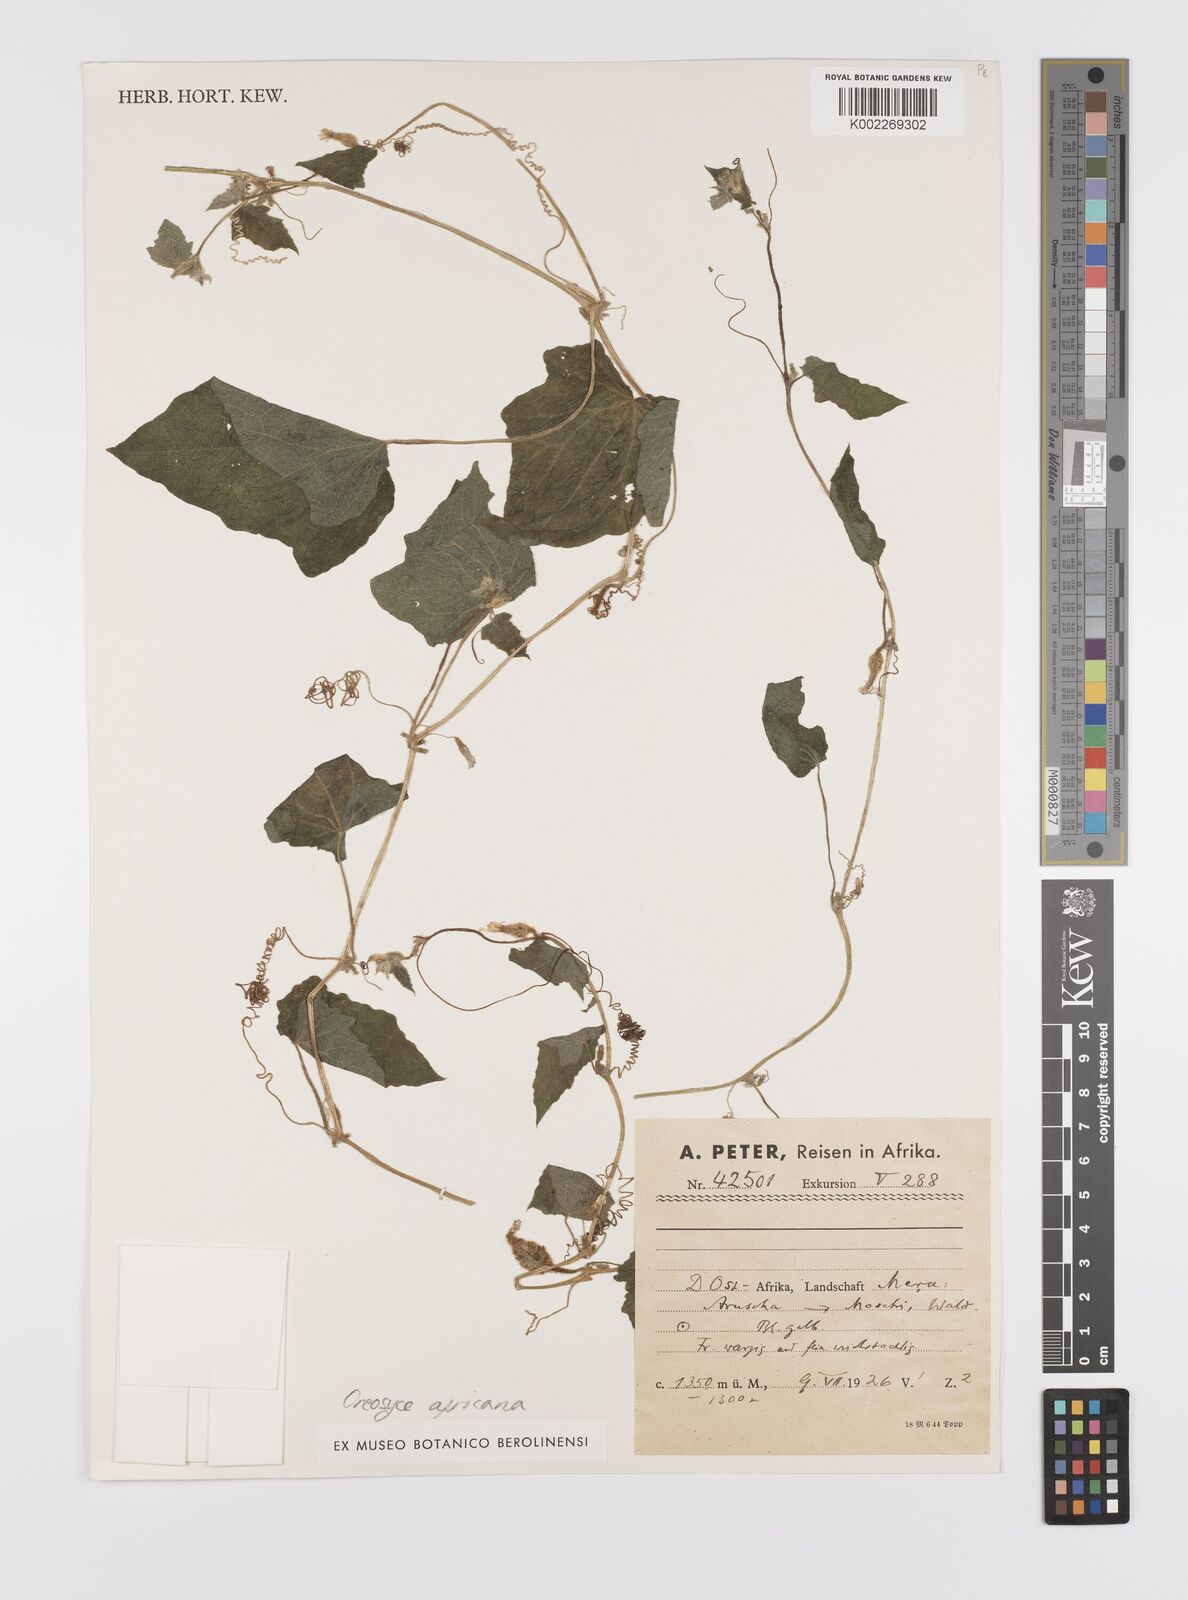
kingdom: Plantae
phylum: Tracheophyta
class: Magnoliopsida
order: Cucurbitales
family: Cucurbitaceae
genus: Cucumis
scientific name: Cucumis oreosyce
